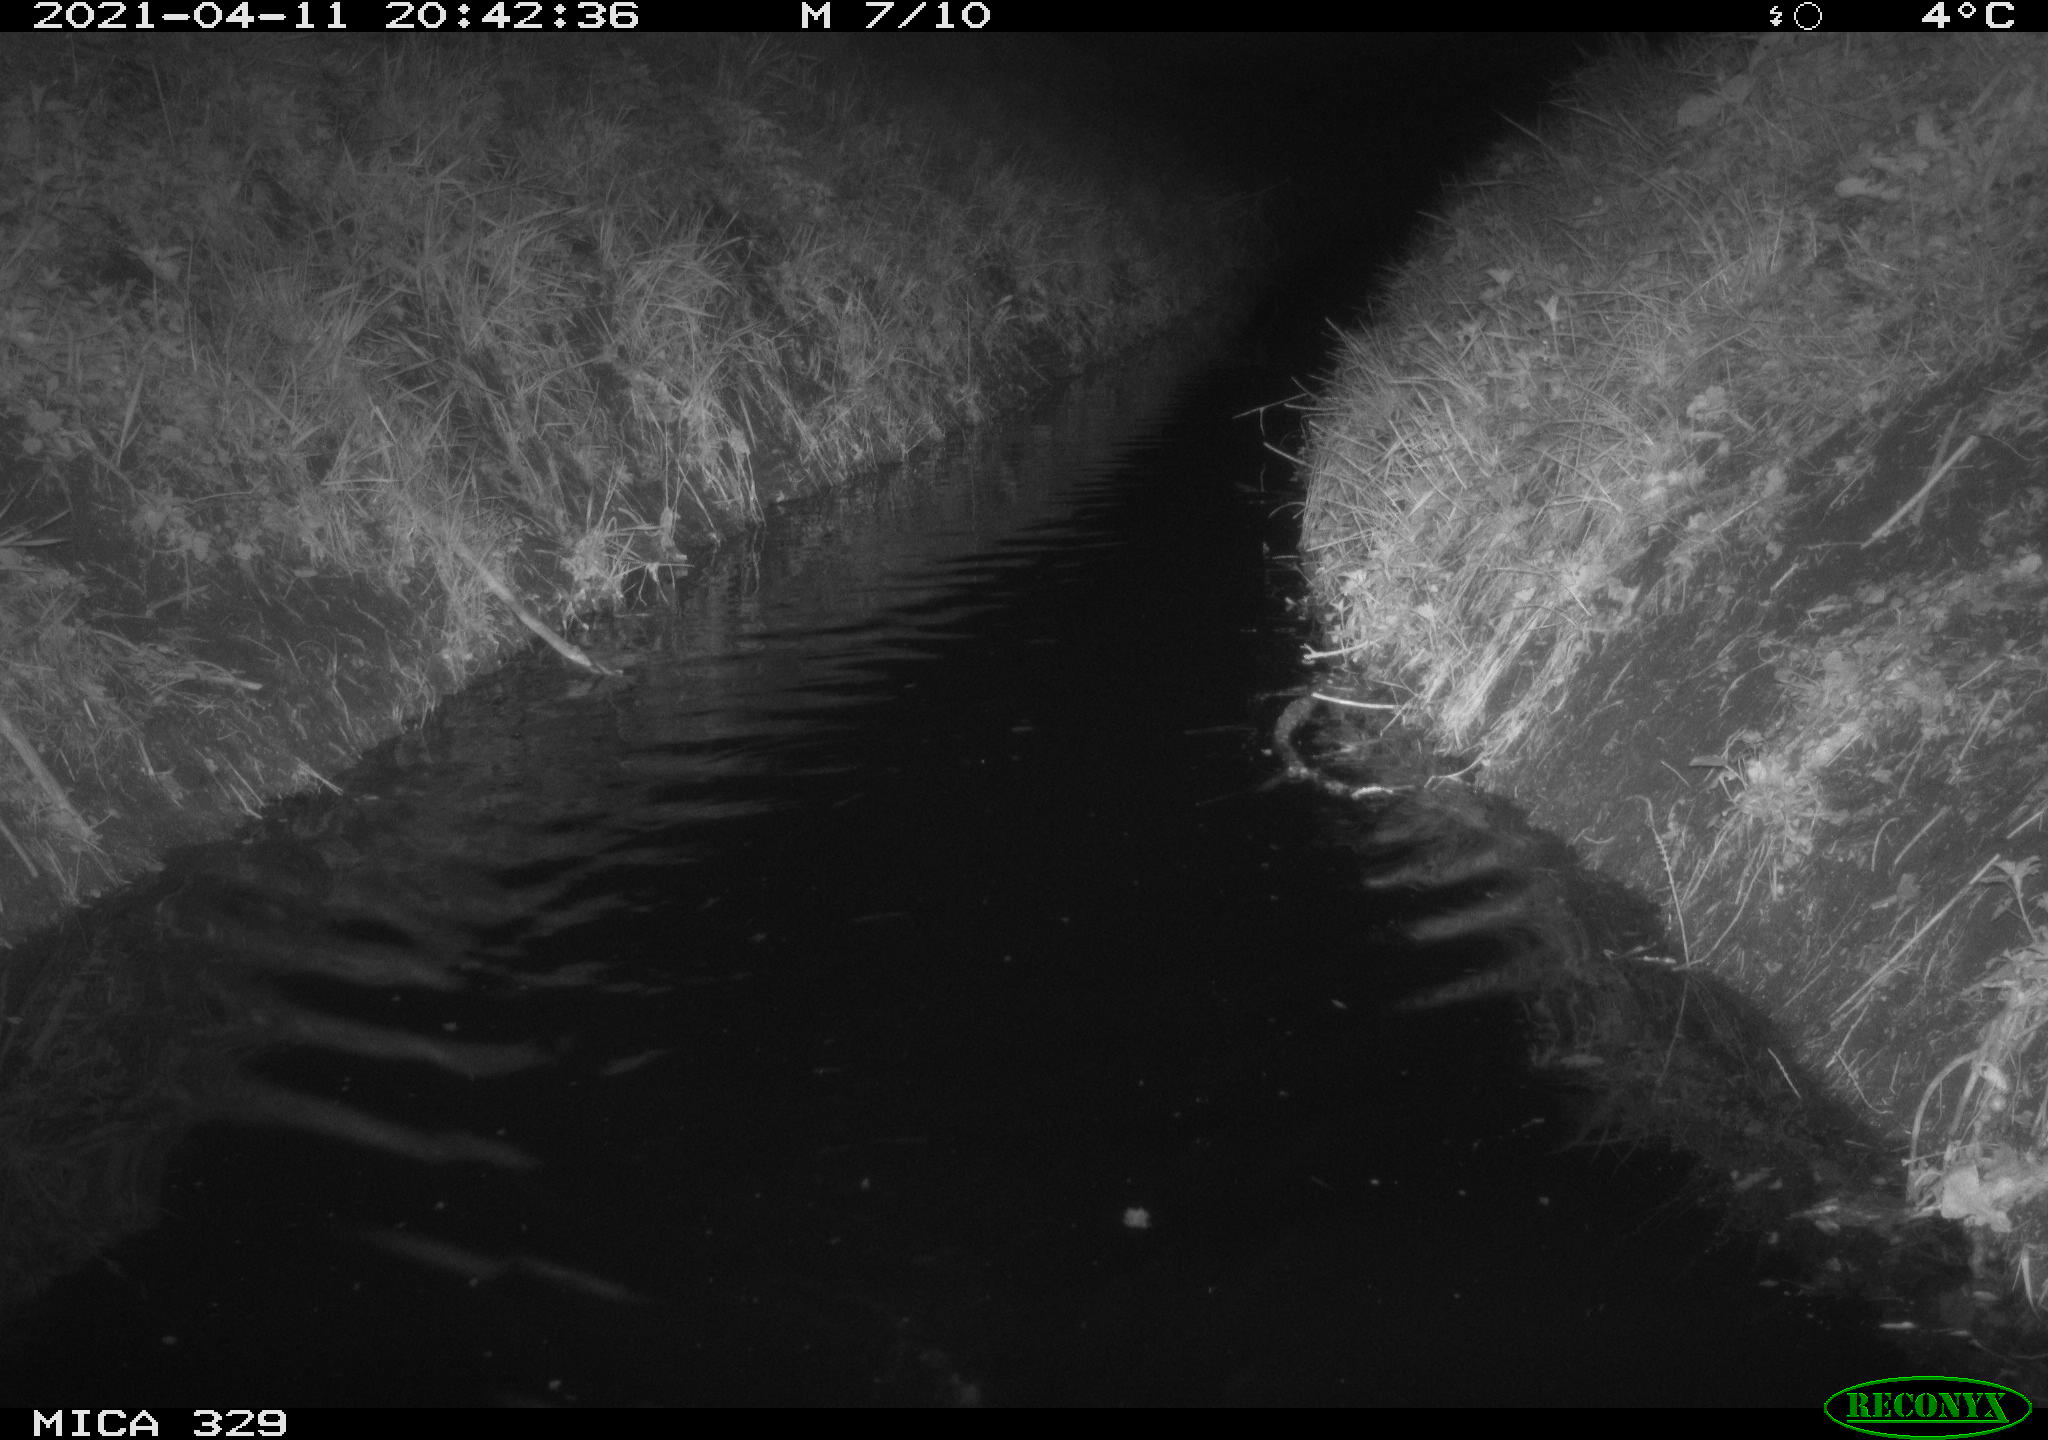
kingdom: Animalia
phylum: Chordata
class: Mammalia
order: Rodentia
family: Cricetidae
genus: Ondatra
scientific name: Ondatra zibethicus
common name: Muskrat
